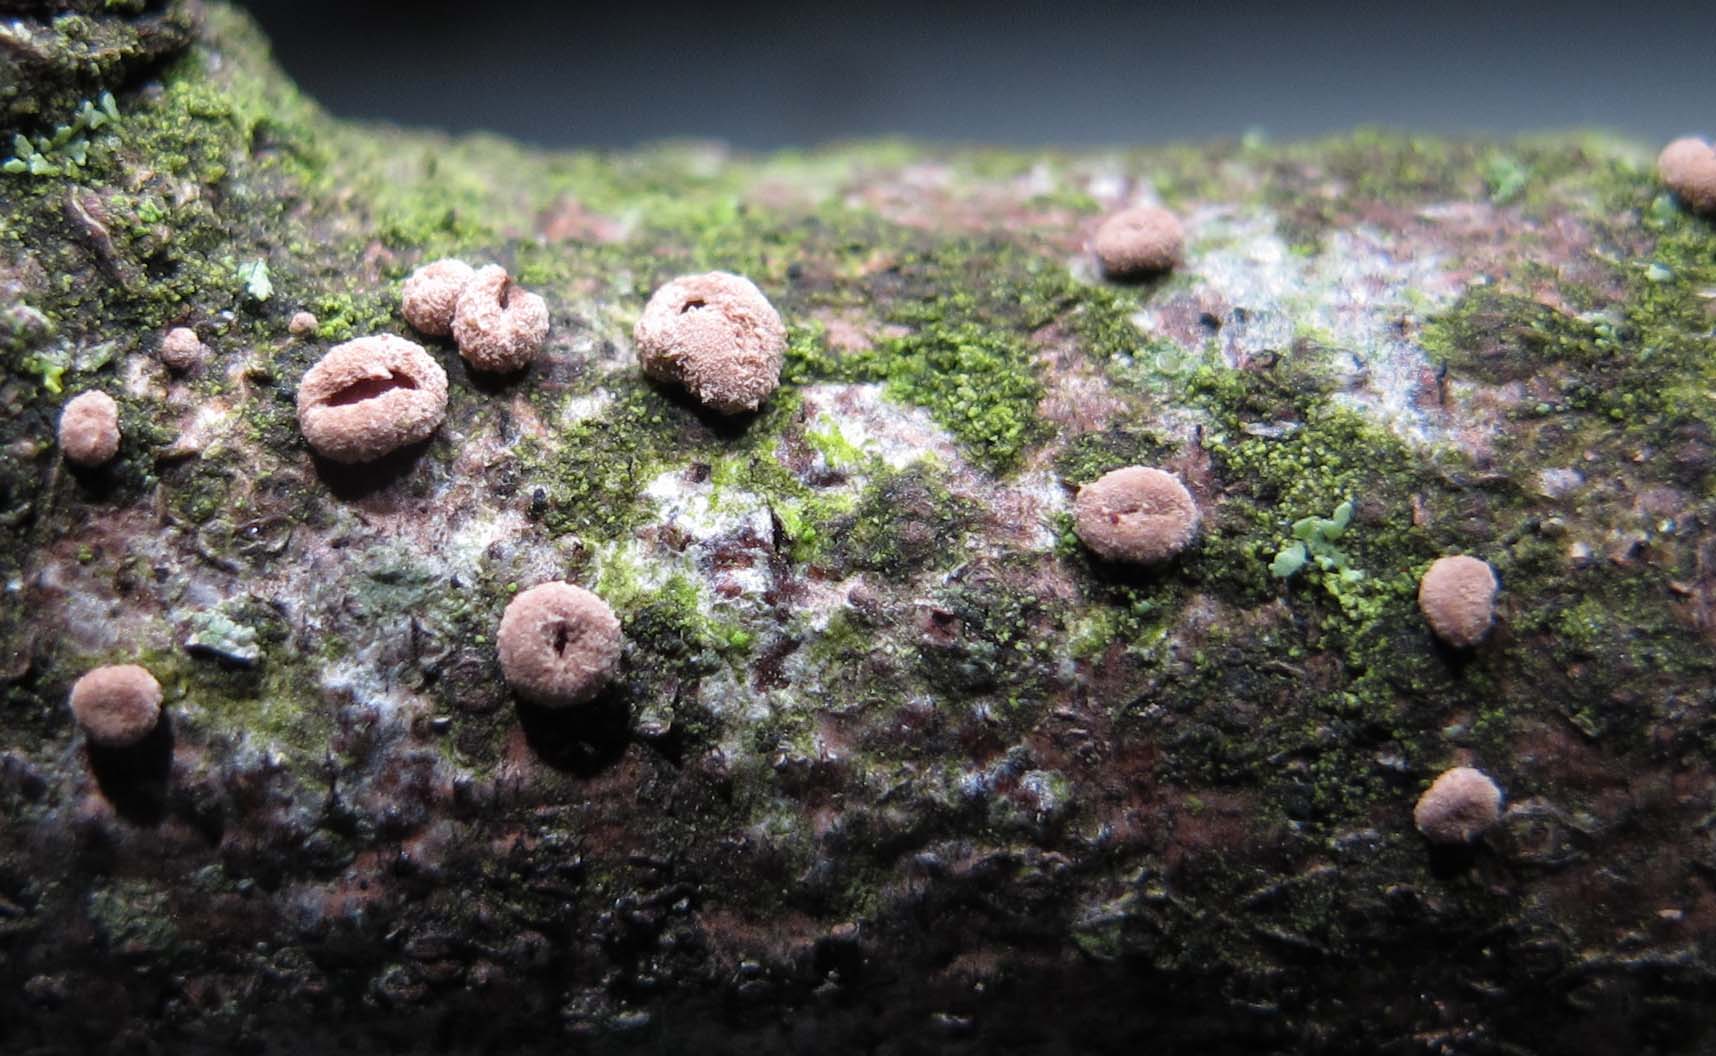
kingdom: Fungi
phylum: Ascomycota
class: Leotiomycetes
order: Helotiales
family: Cenangiaceae
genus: Velutarina
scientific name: Velutarina rufo-olivacea
